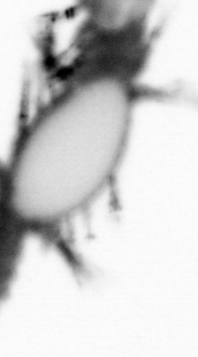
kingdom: Animalia
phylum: Annelida
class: Polychaeta
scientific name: Polychaeta
